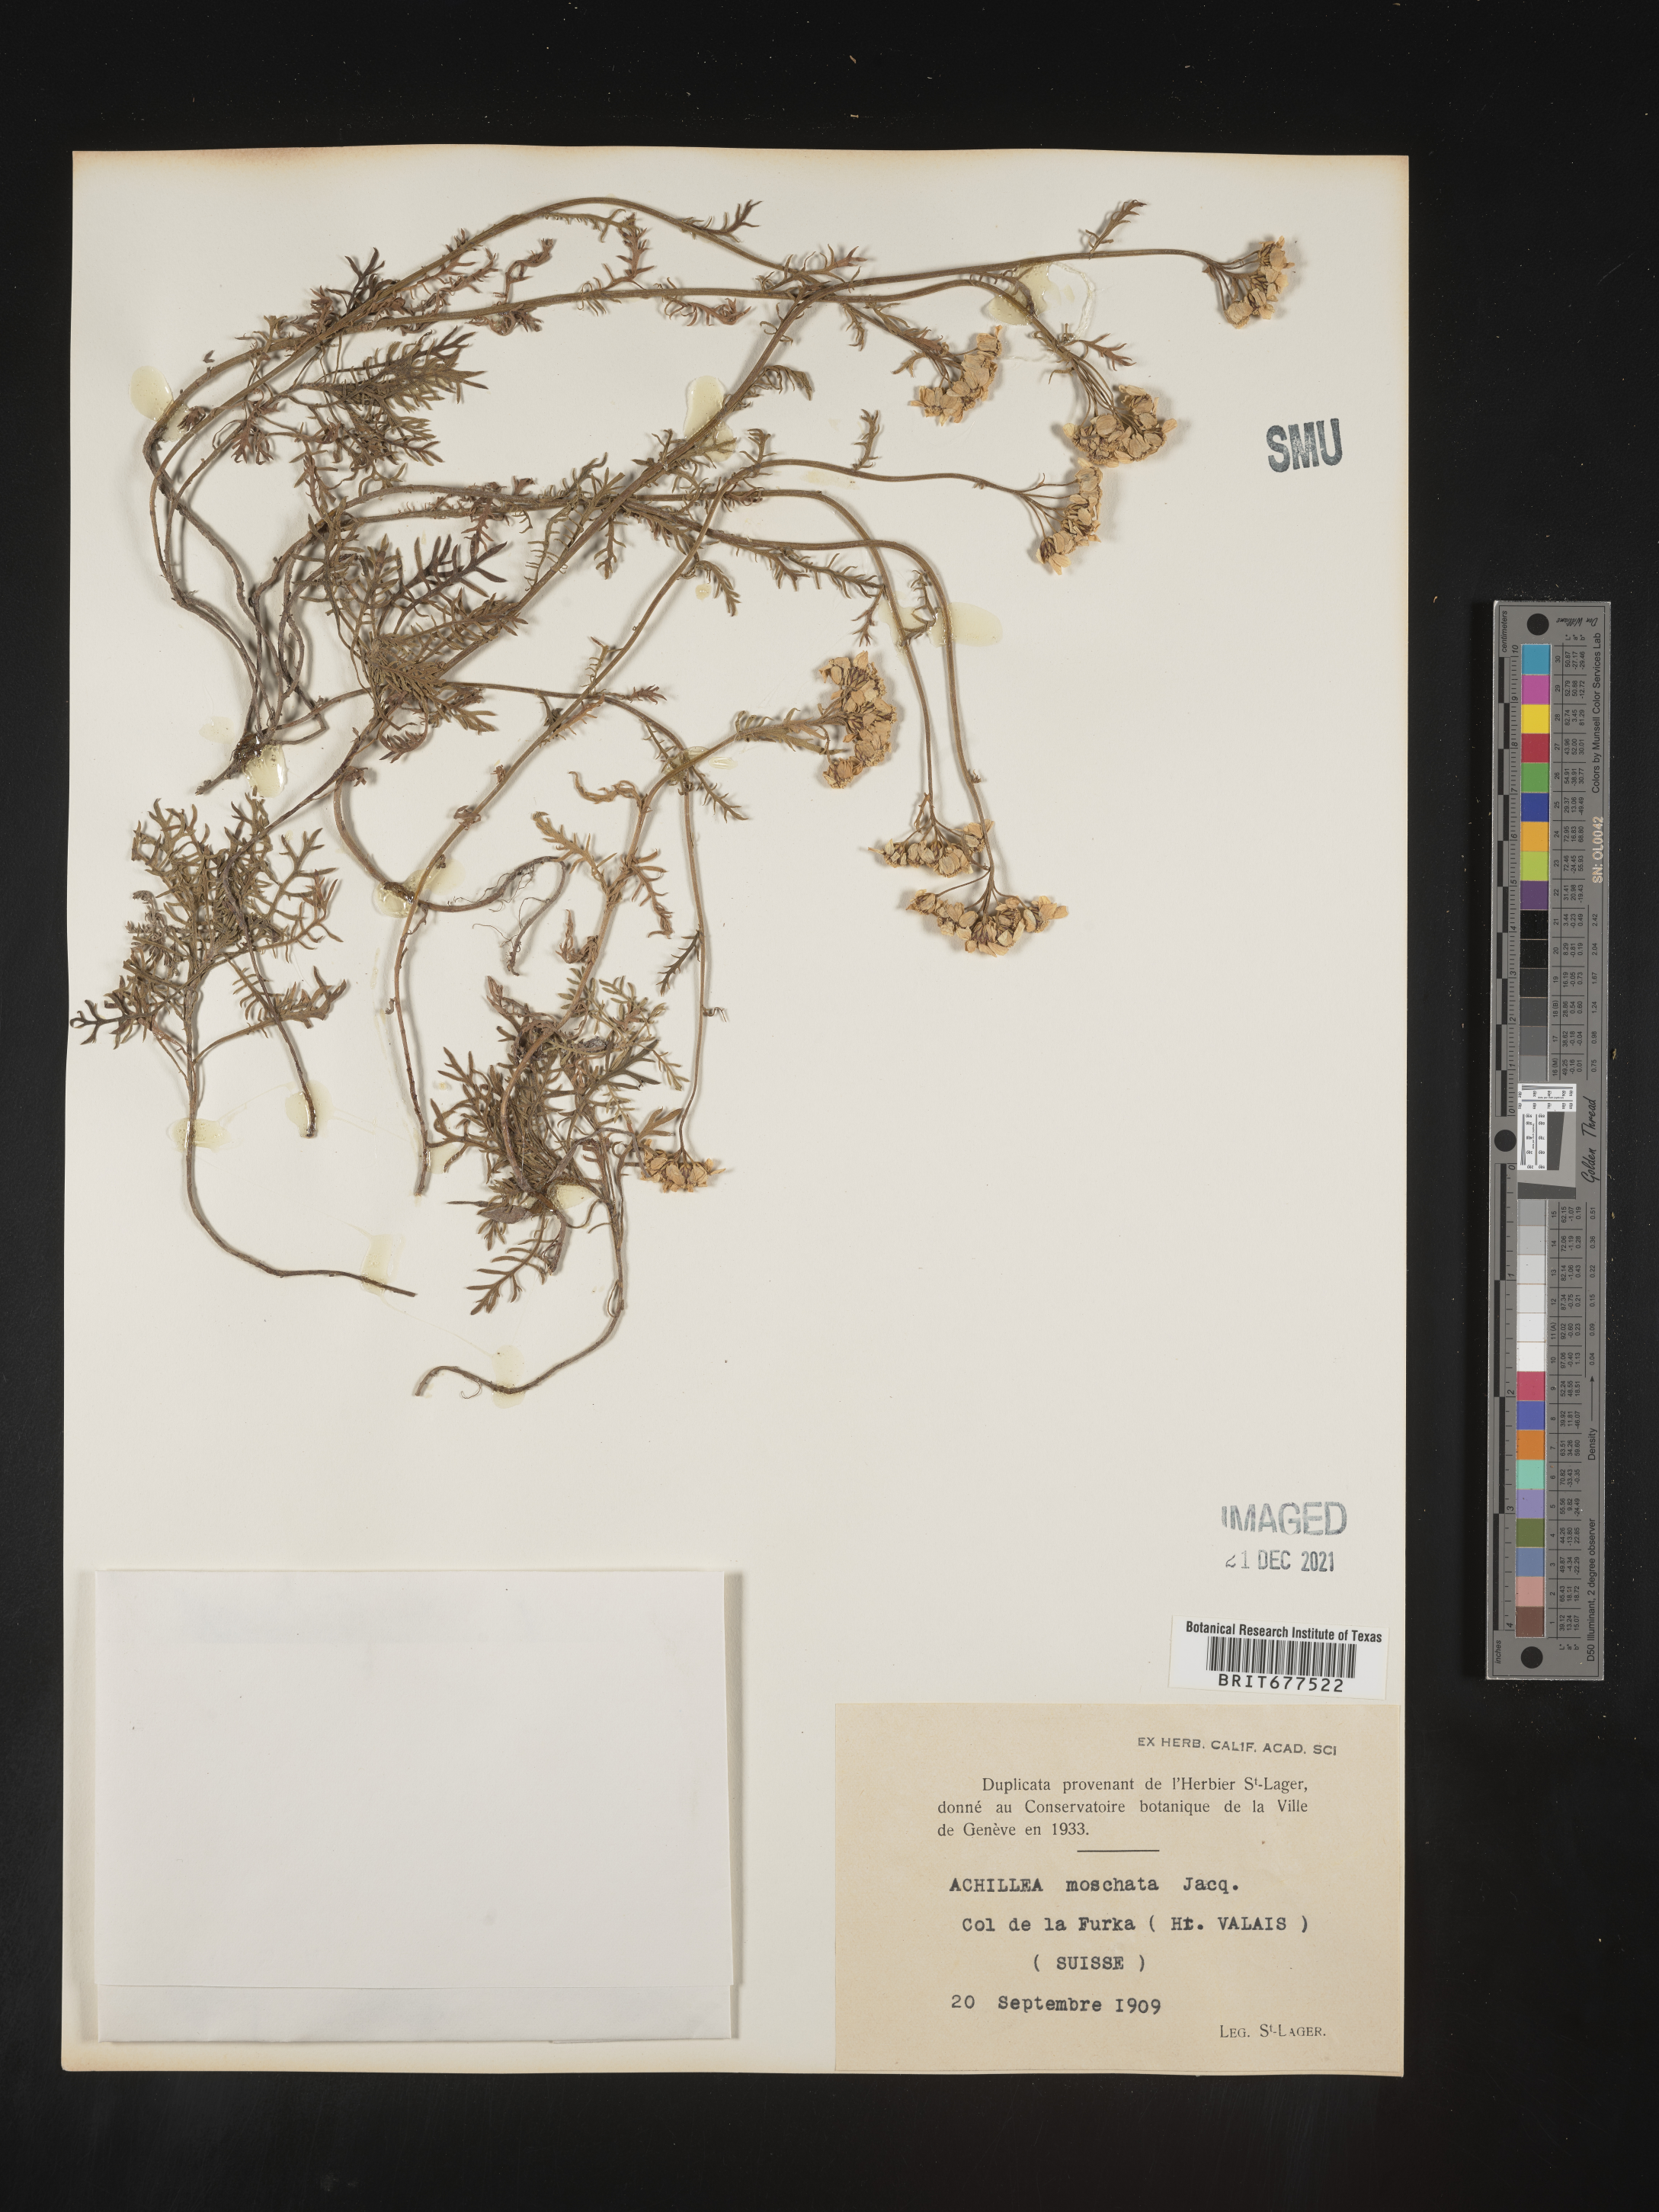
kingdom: Plantae
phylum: Tracheophyta
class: Magnoliopsida
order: Asterales
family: Asteraceae
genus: Achillea
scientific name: Achillea
